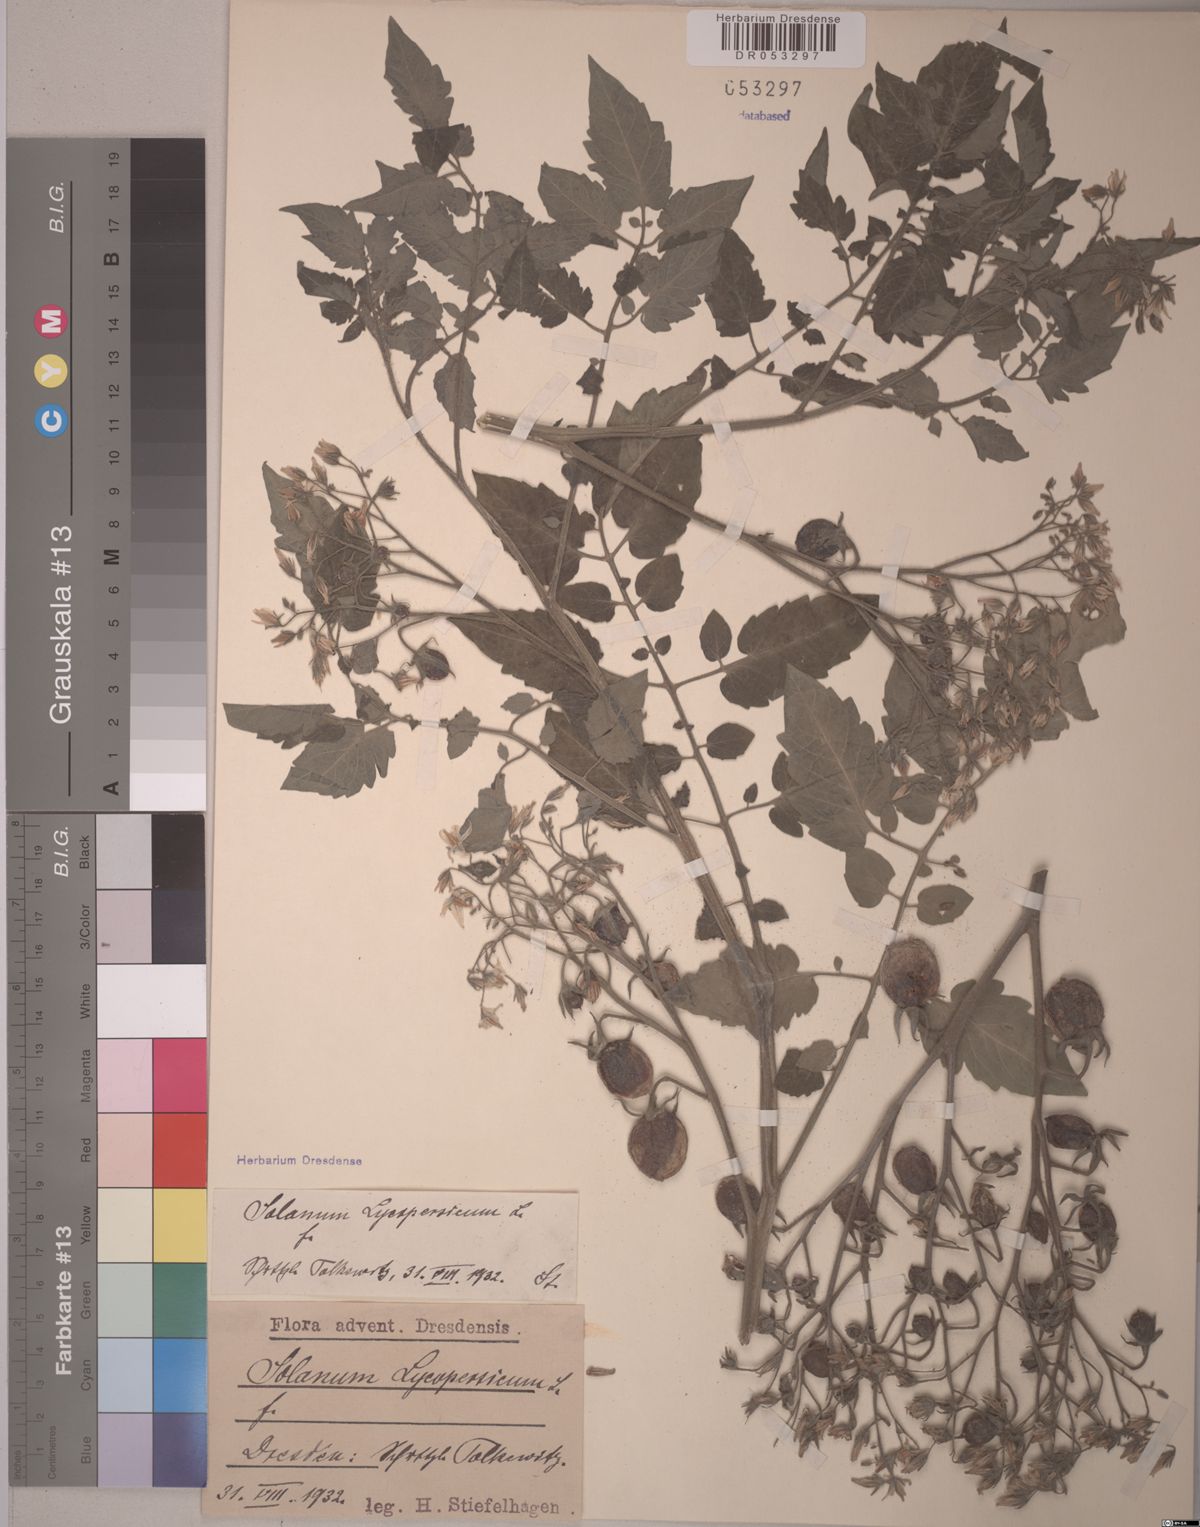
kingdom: Plantae
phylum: Tracheophyta
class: Magnoliopsida
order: Solanales
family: Solanaceae
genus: Solanum
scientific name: Solanum lycopersicum
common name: Garden tomato
